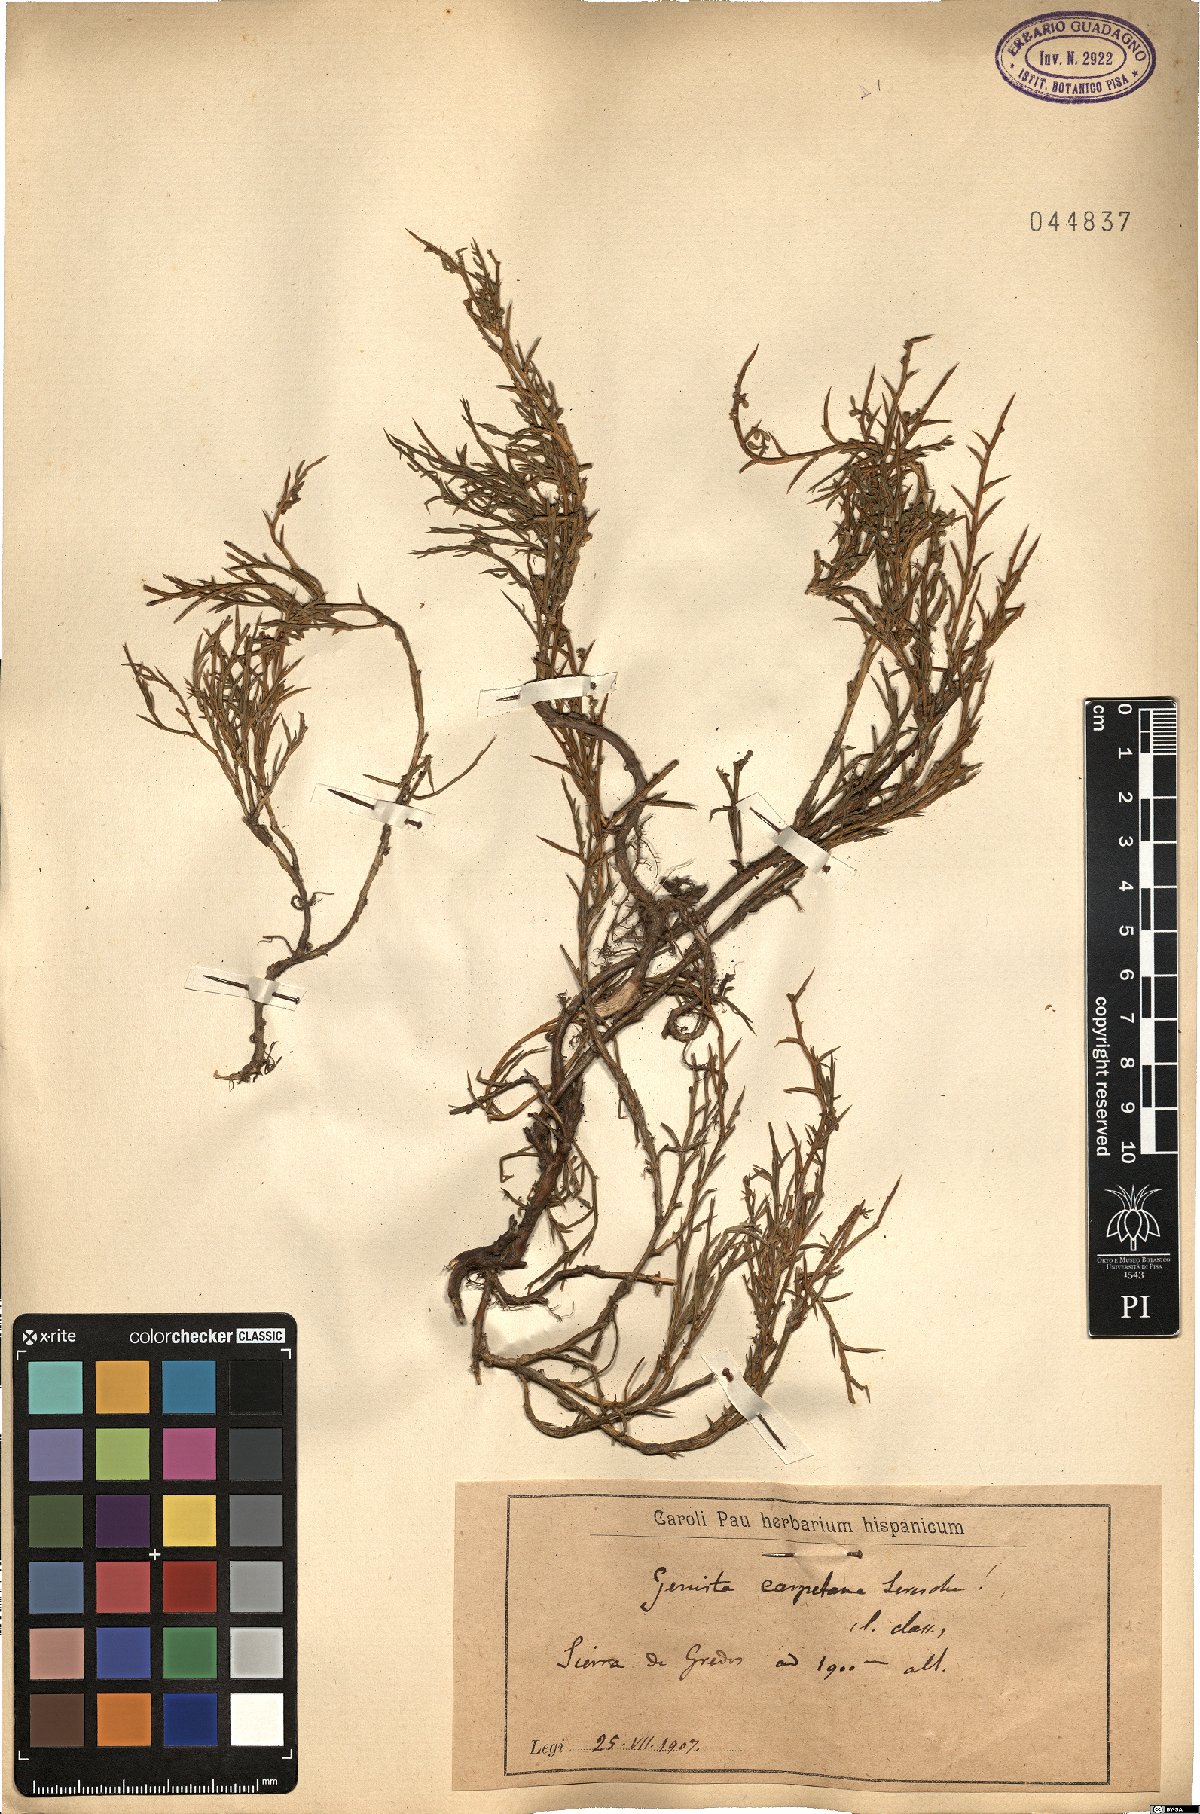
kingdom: Plantae
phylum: Tracheophyta
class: Magnoliopsida
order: Fabales
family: Fabaceae
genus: Genista
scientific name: Genista carpetana
